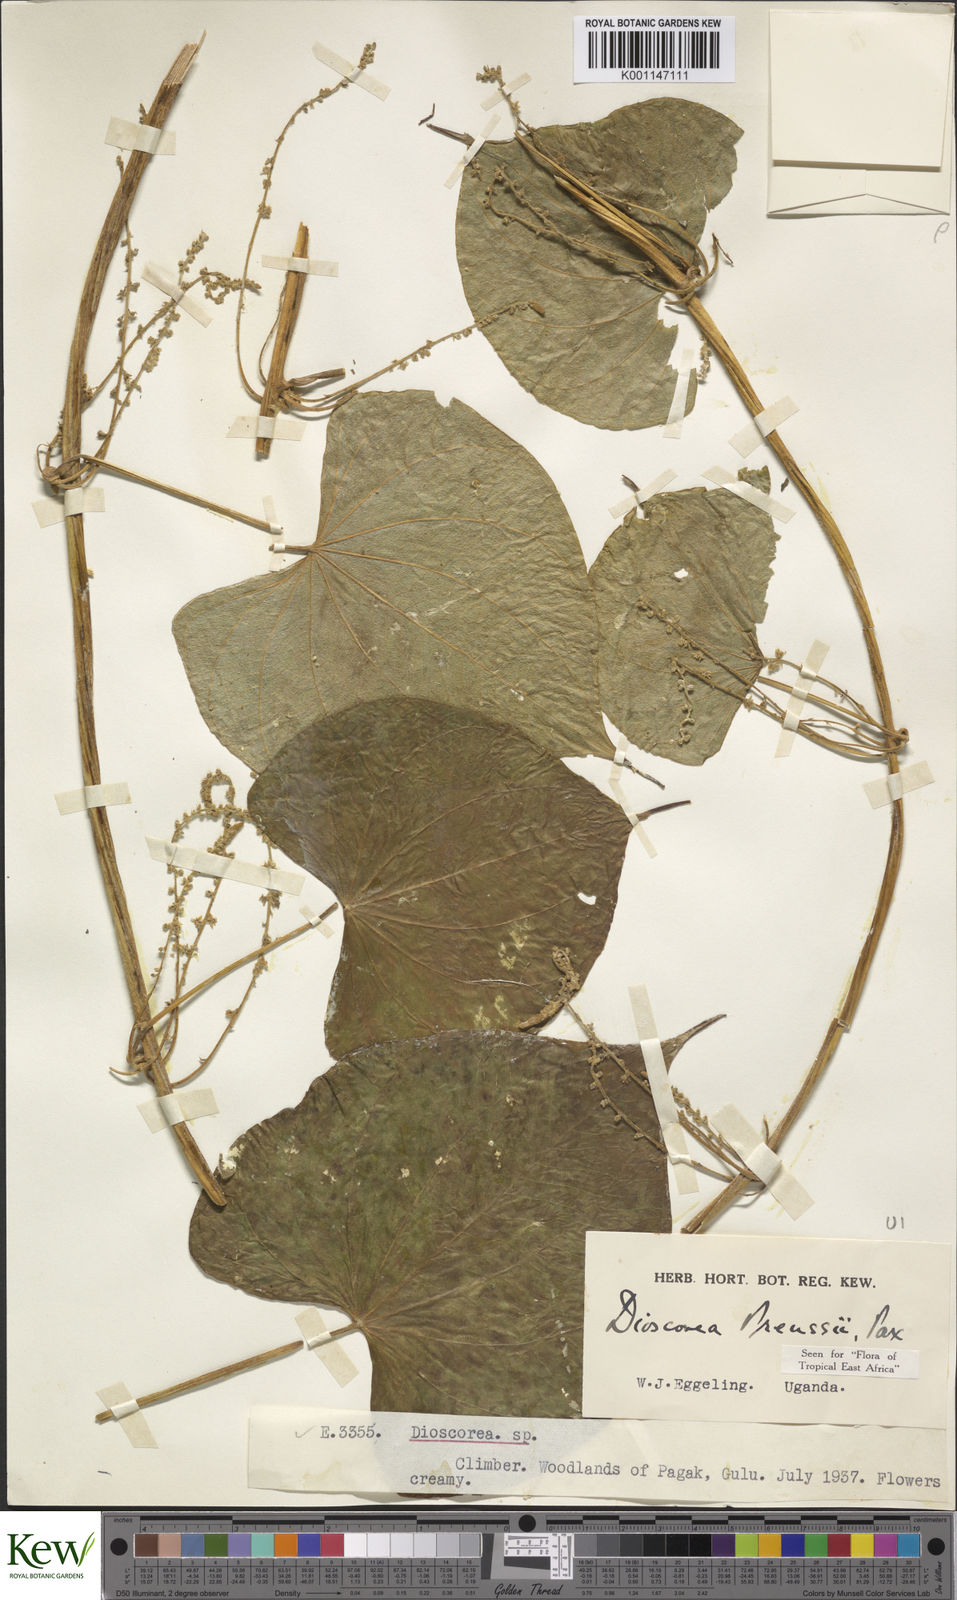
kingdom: Plantae
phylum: Tracheophyta
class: Liliopsida
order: Dioscoreales
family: Dioscoreaceae
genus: Dioscorea
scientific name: Dioscorea preussii
